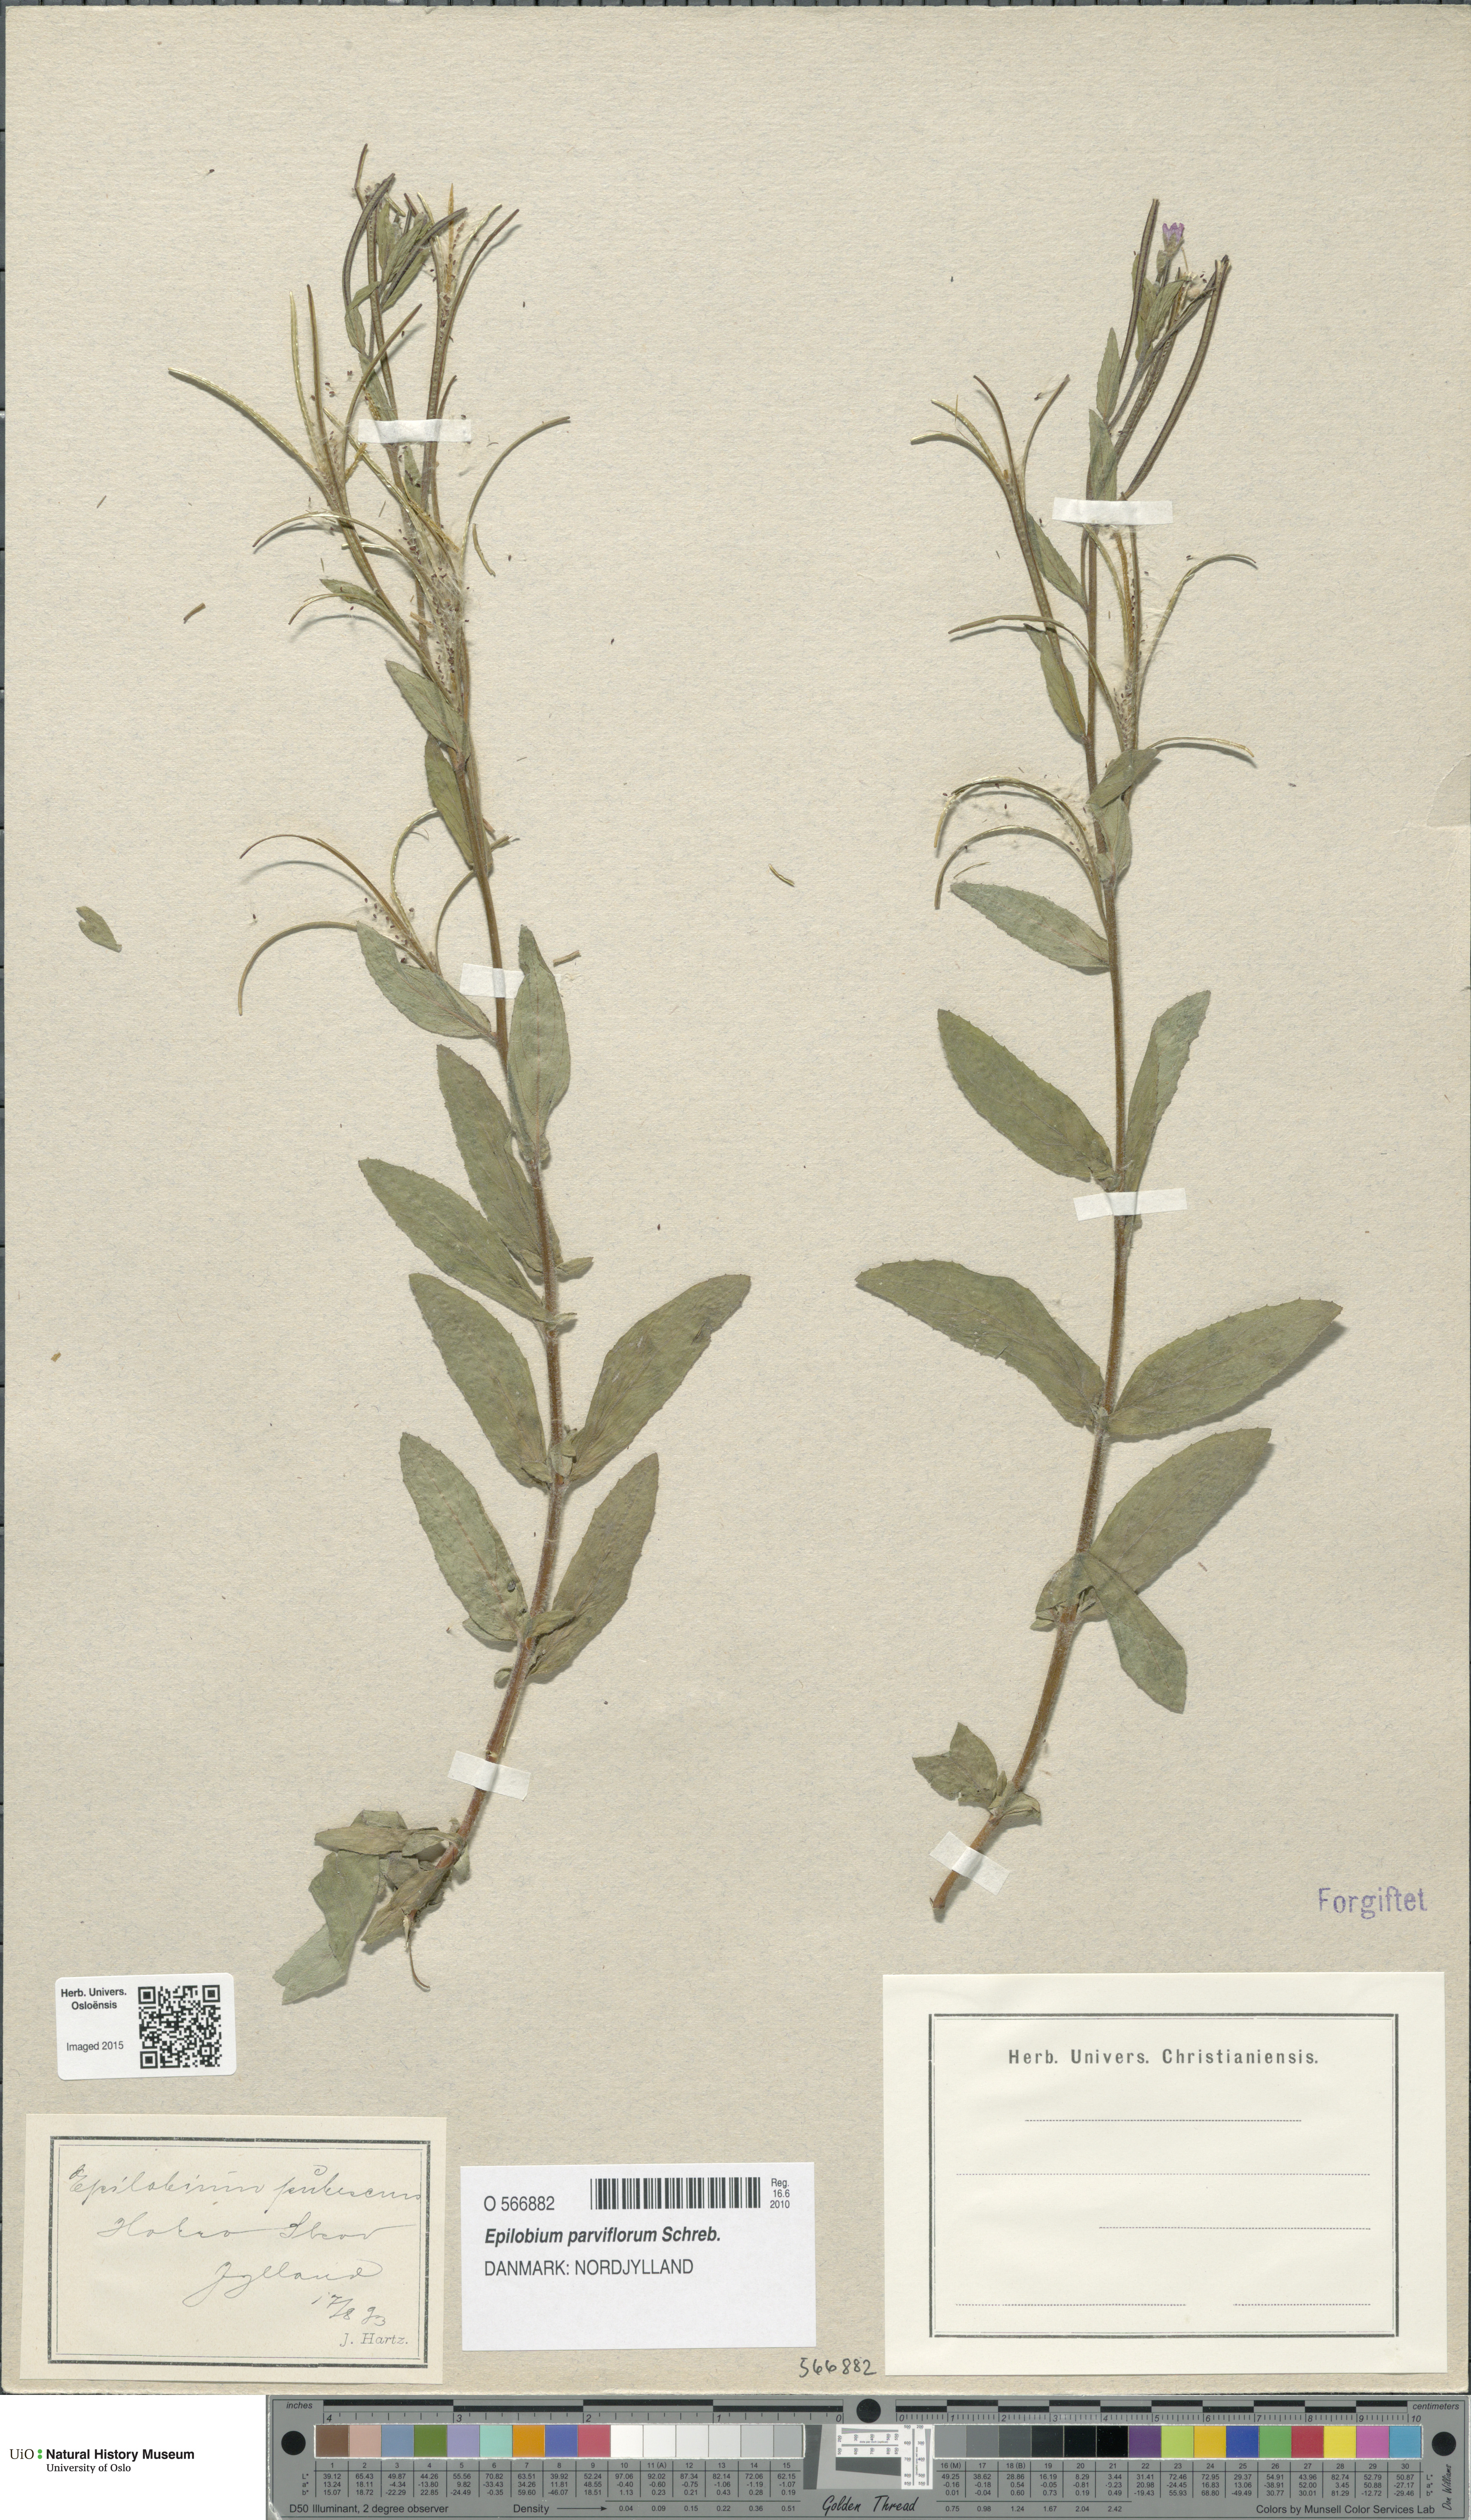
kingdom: Plantae
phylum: Tracheophyta
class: Magnoliopsida
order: Myrtales
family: Onagraceae
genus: Epilobium
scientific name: Epilobium parviflorum
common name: Hoary willowherb
